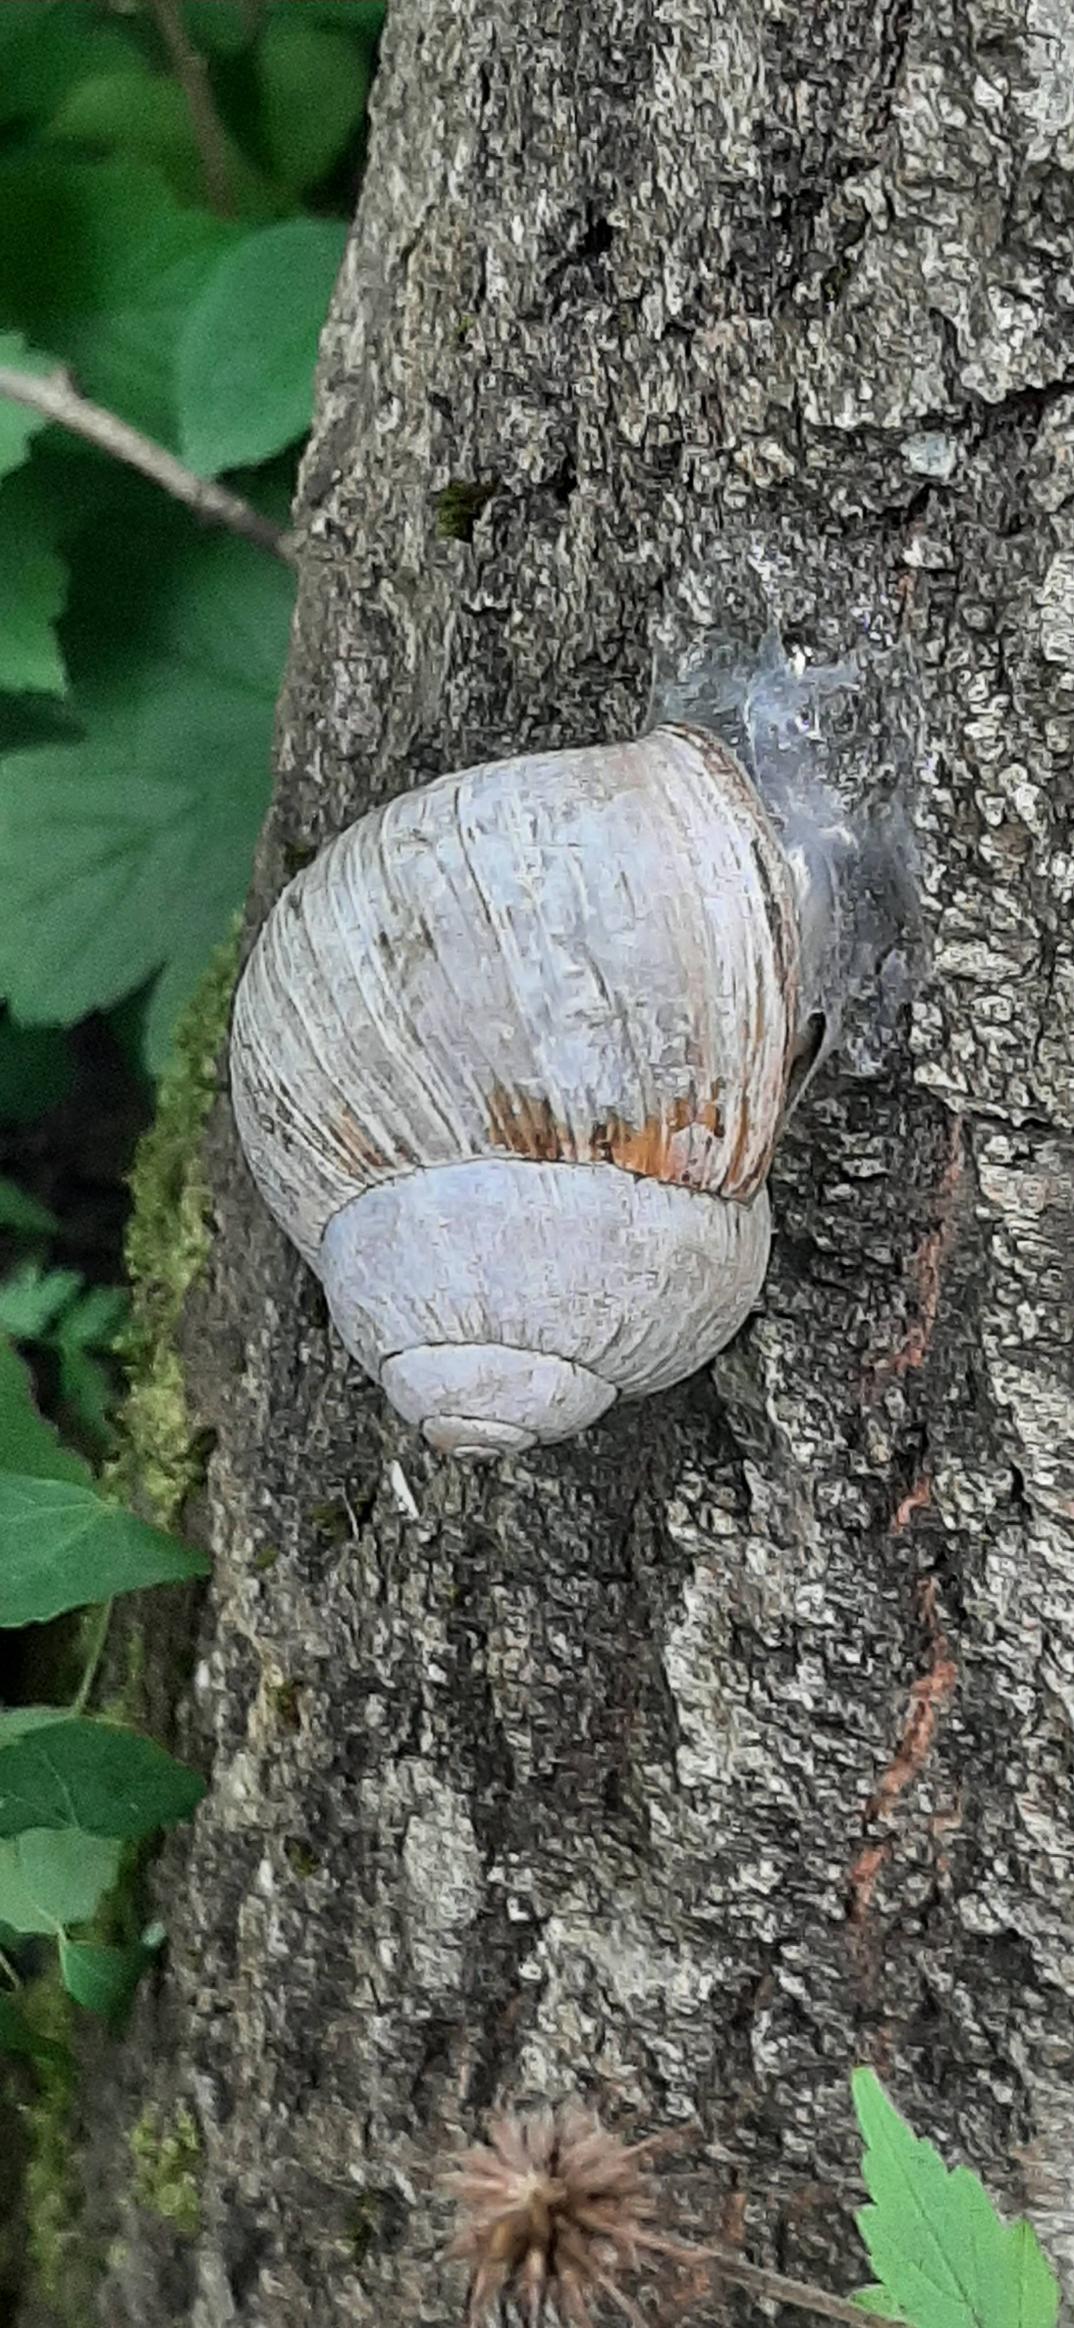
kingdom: Animalia
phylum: Mollusca
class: Gastropoda
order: Stylommatophora
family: Helicidae
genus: Helix
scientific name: Helix pomatia
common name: Vinbjergsnegl
